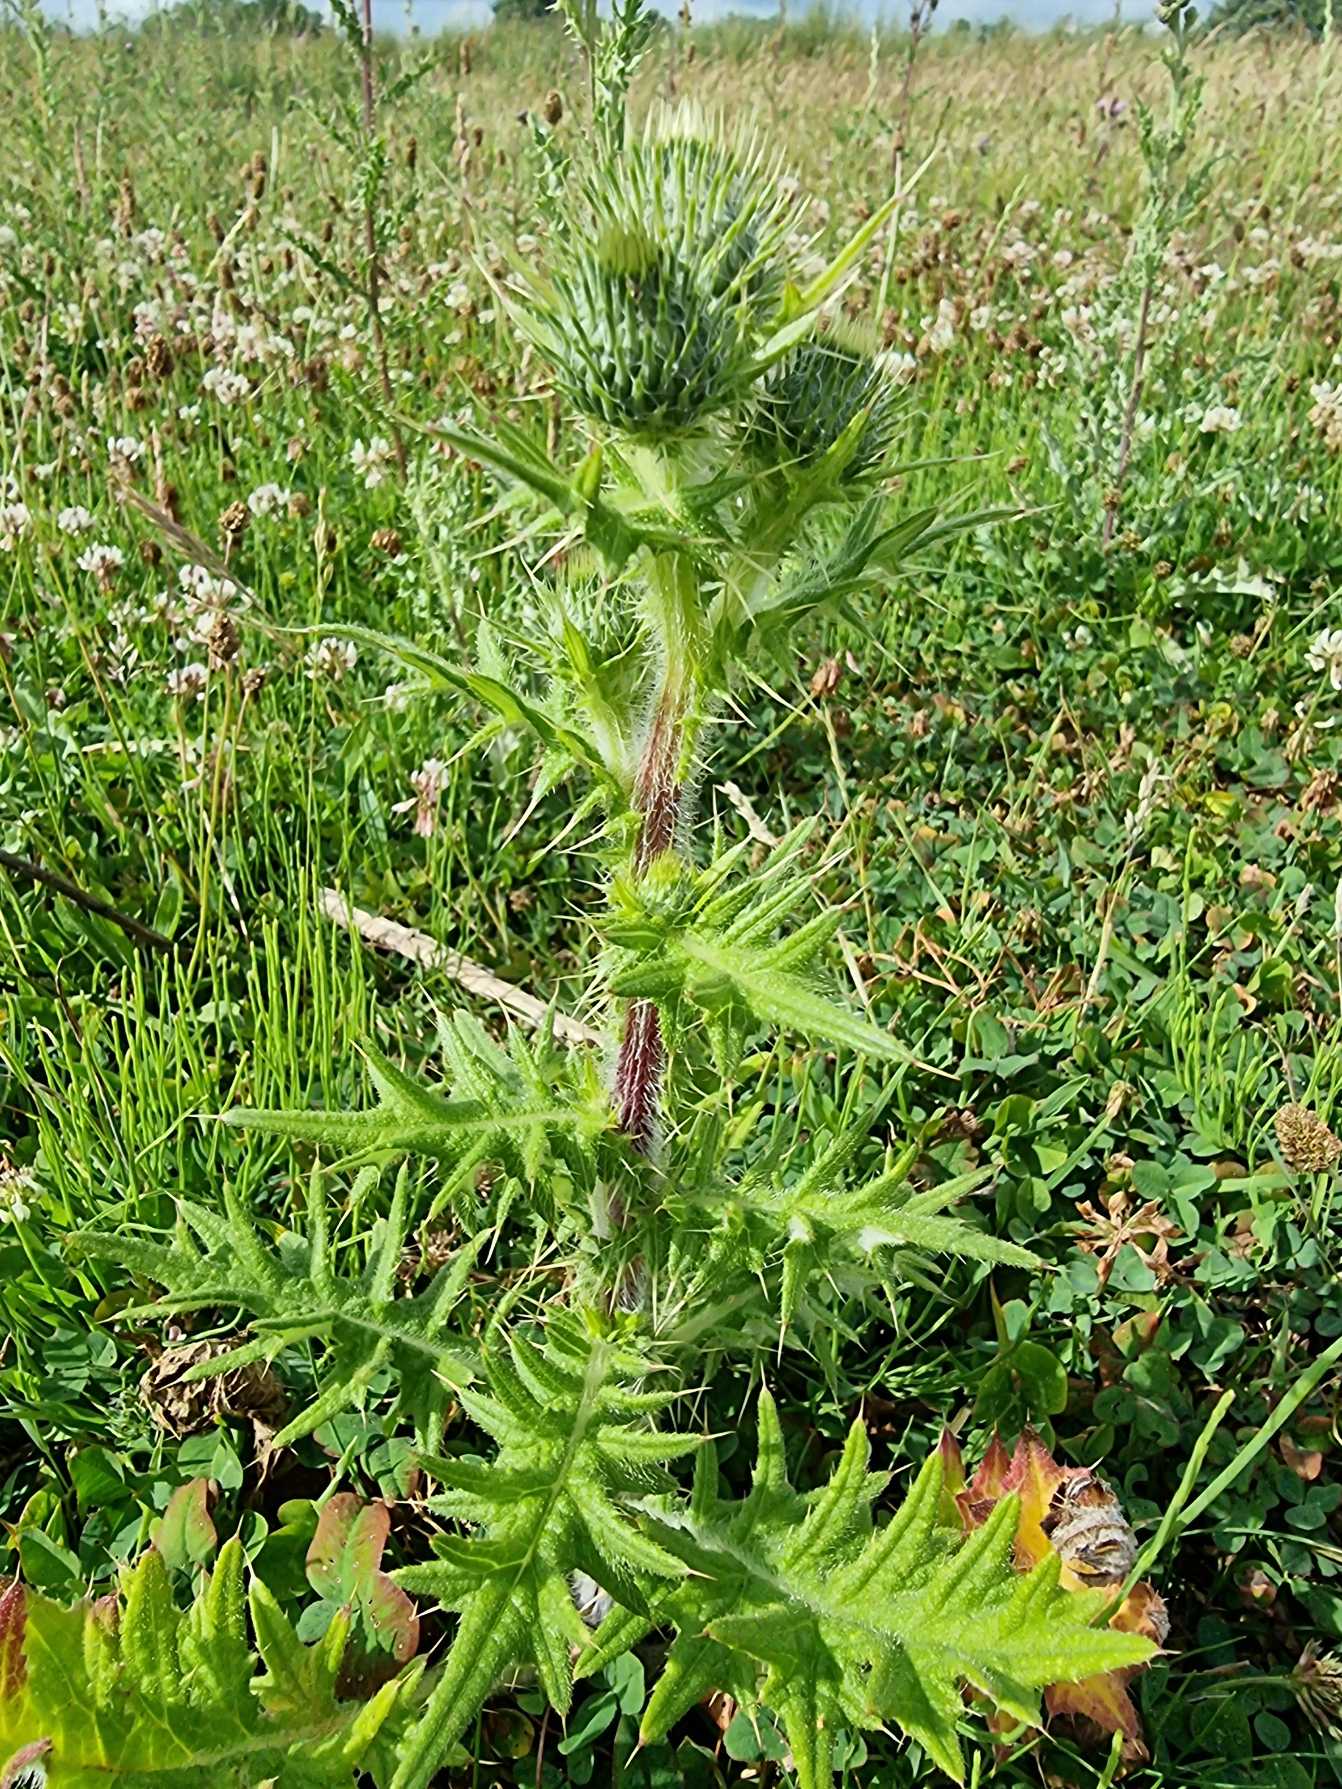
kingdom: Plantae
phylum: Tracheophyta
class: Magnoliopsida
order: Asterales
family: Asteraceae
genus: Cirsium
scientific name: Cirsium vulgare
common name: Horse-tidsel
